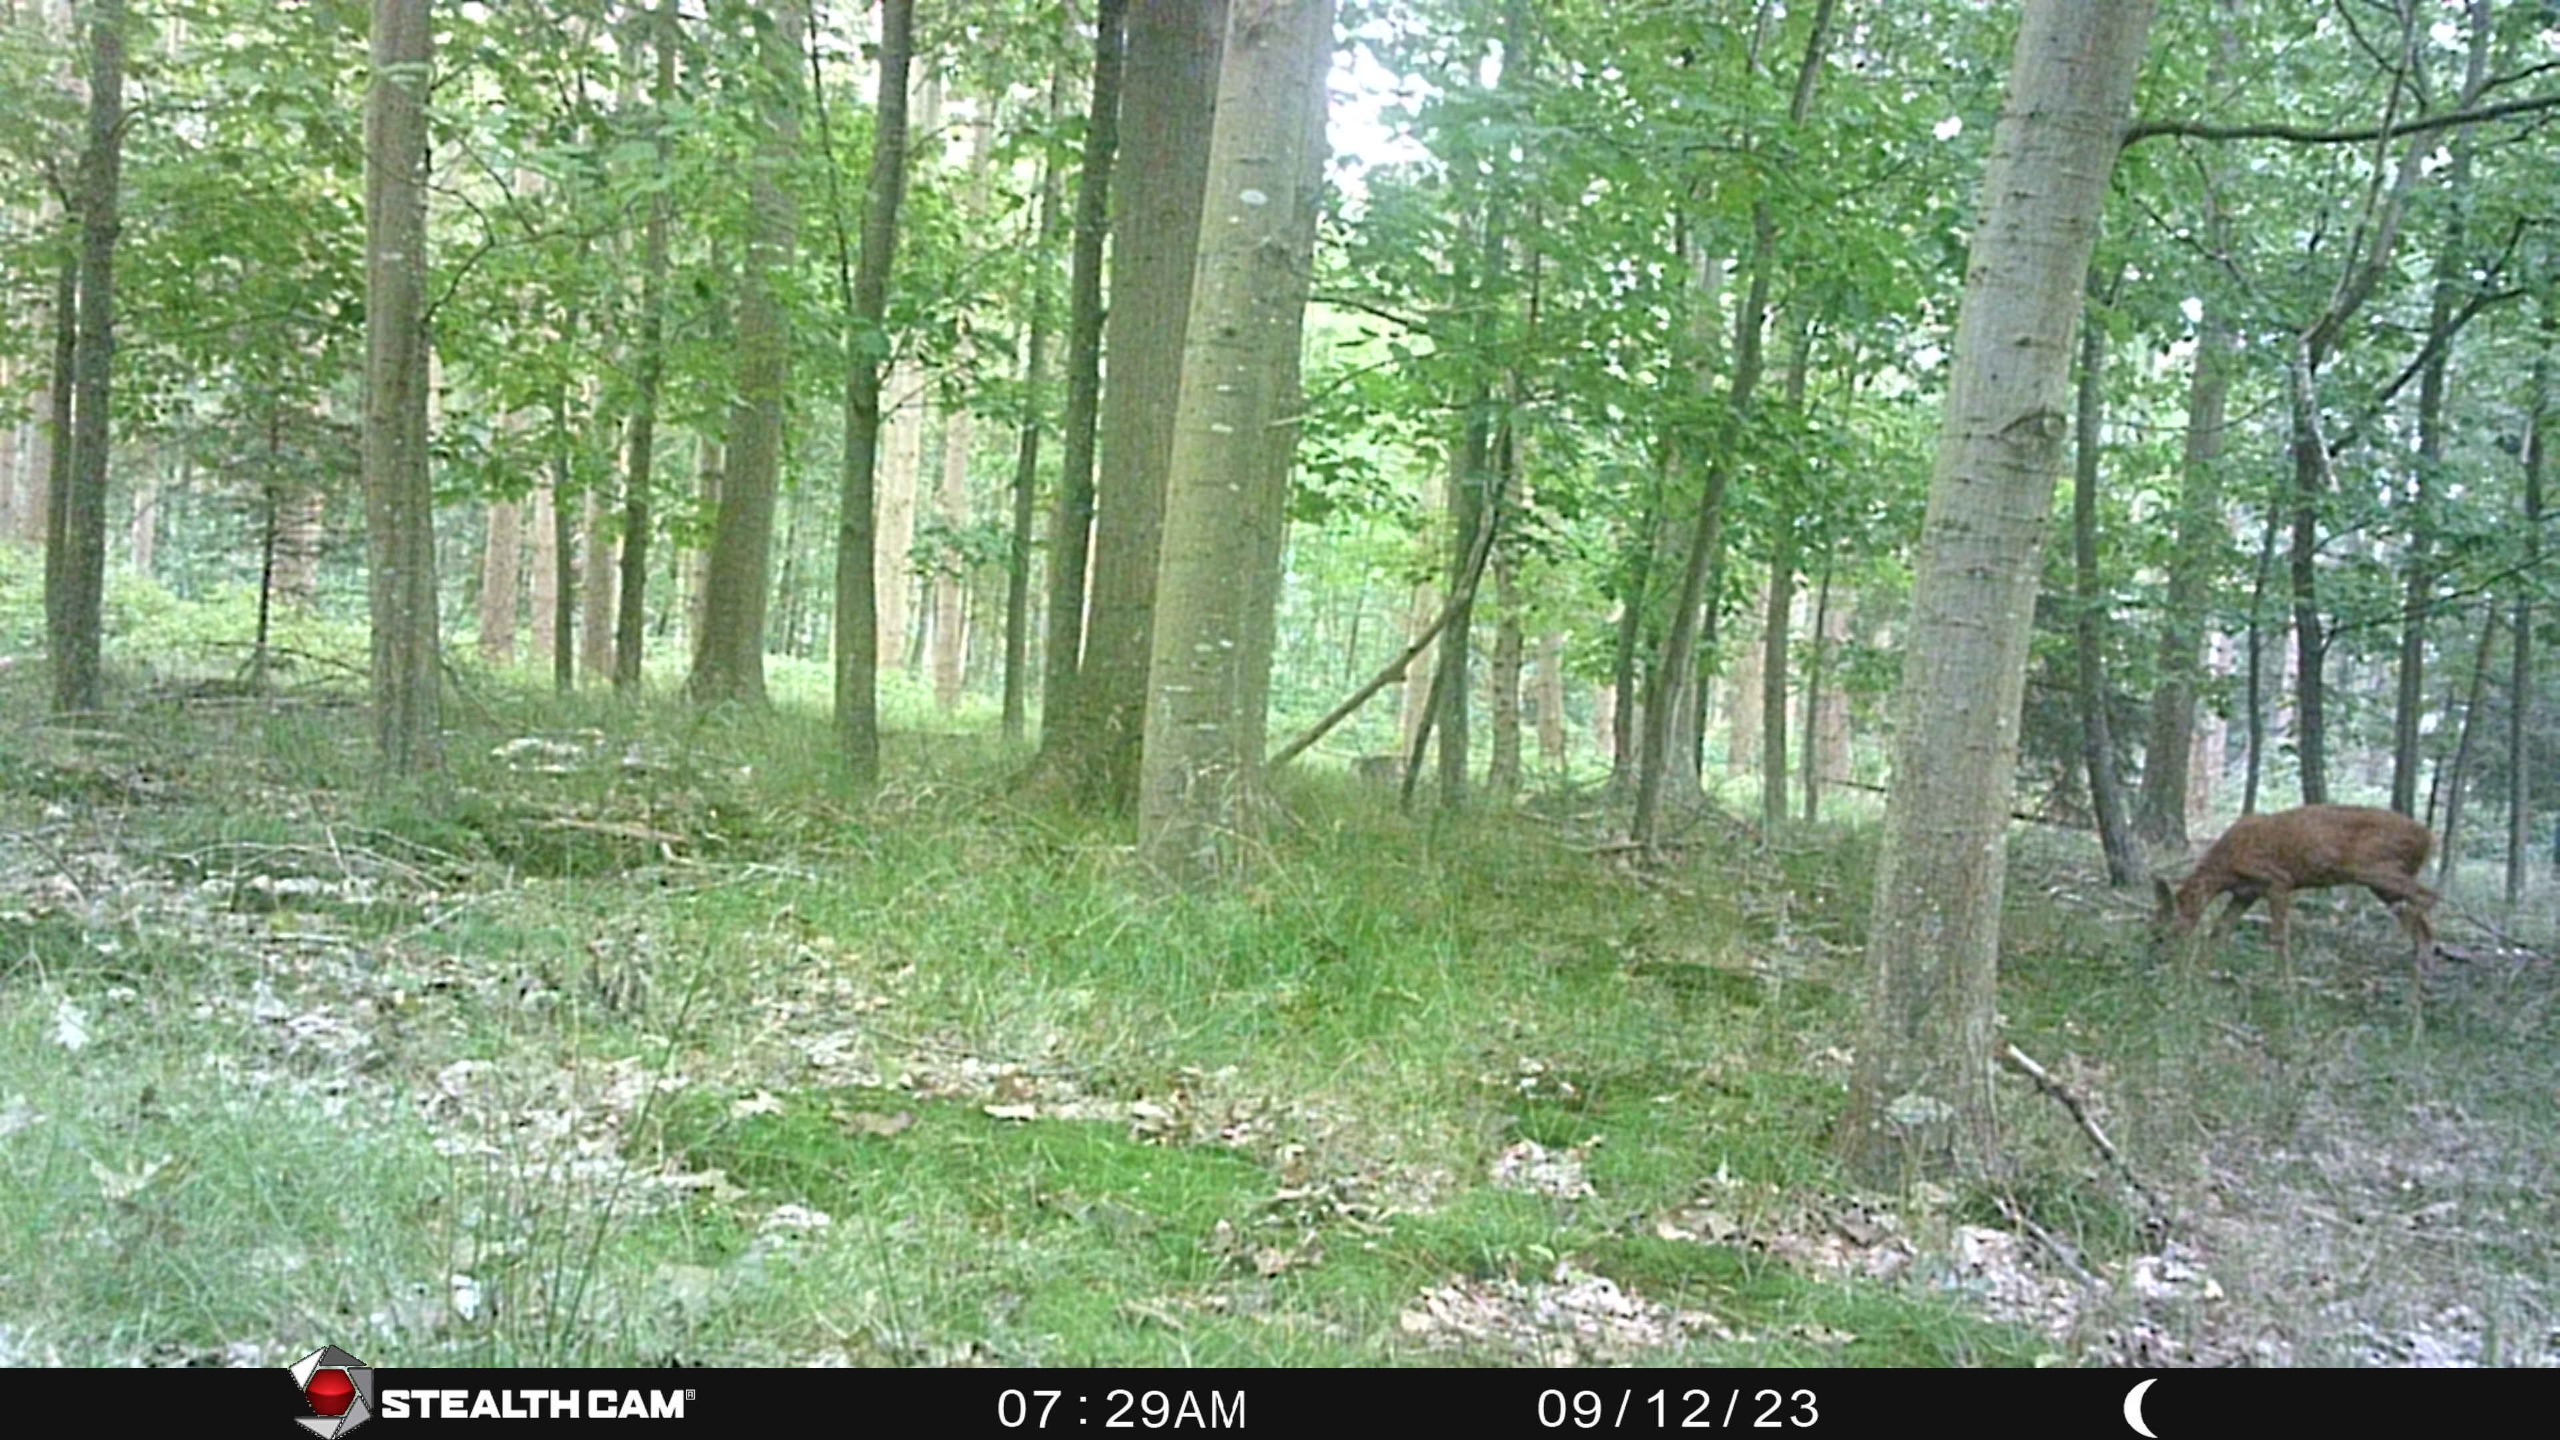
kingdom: Animalia
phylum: Chordata
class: Mammalia
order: Artiodactyla
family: Cervidae
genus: Capreolus
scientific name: Capreolus capreolus
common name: Rådyr
